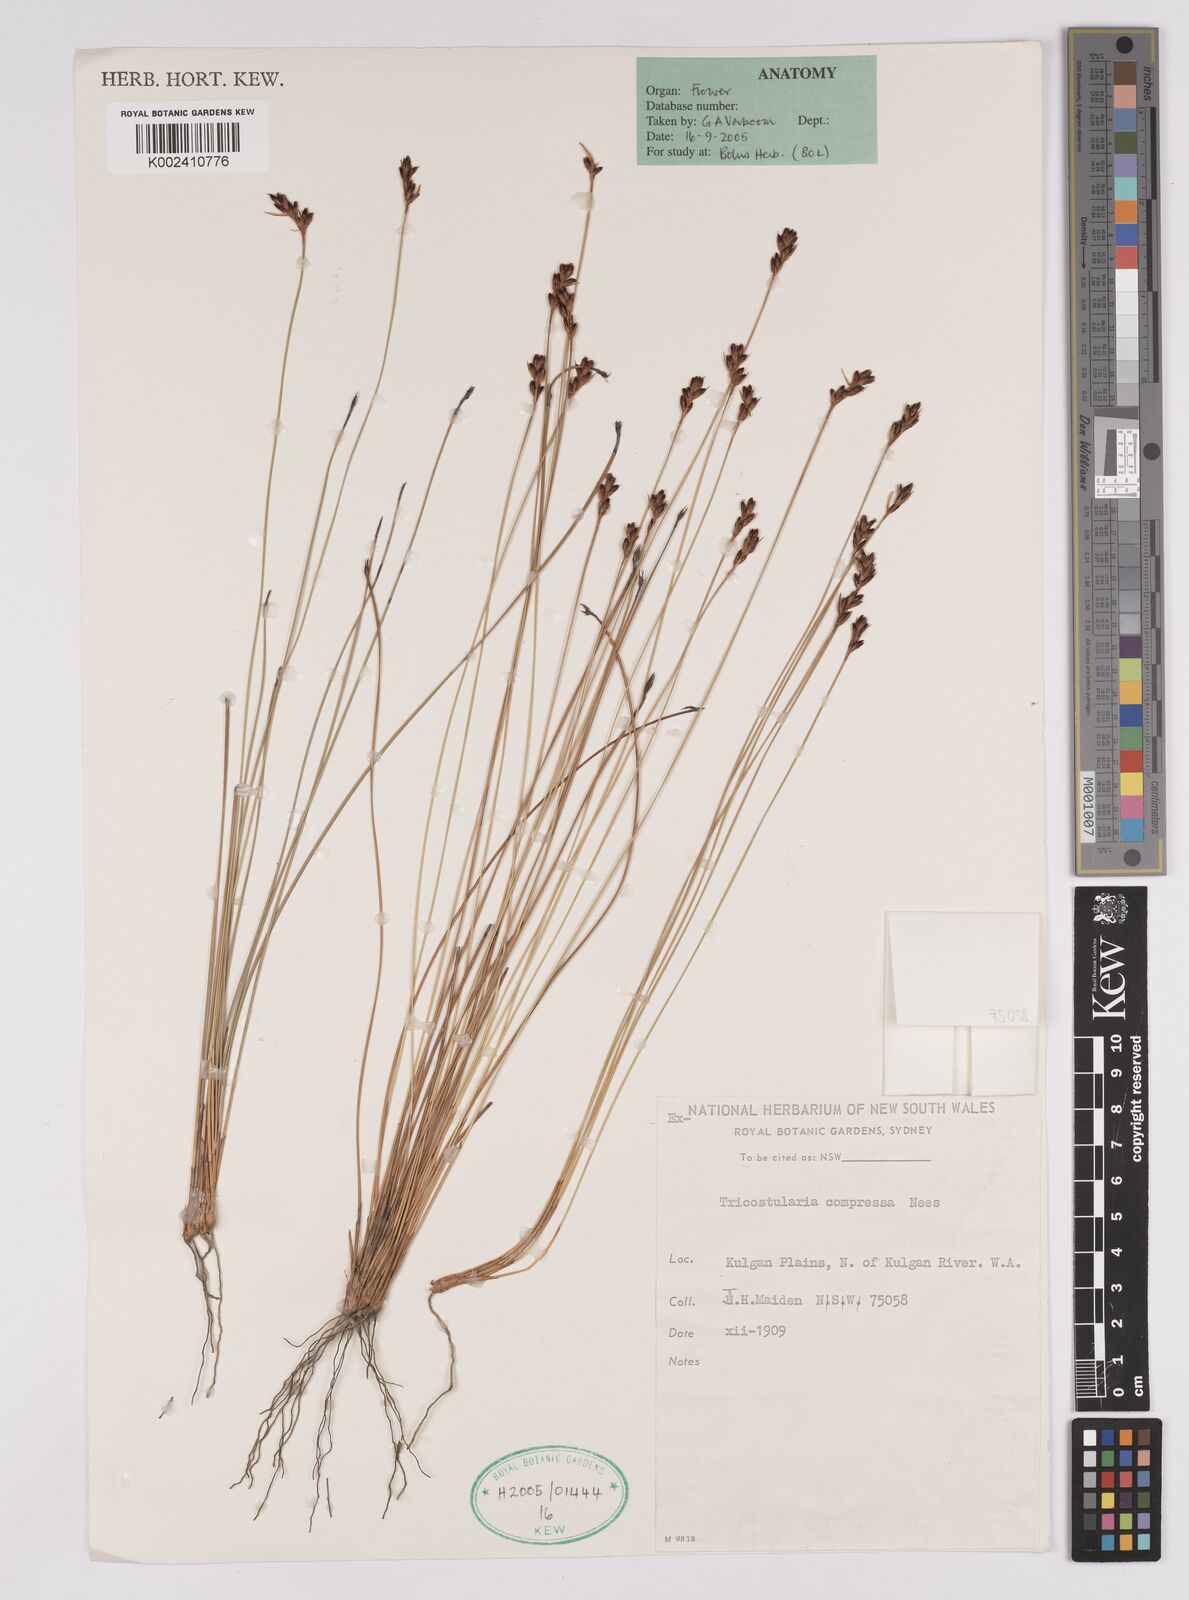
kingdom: Plantae
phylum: Tracheophyta
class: Liliopsida
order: Poales
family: Cyperaceae
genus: Tricostularia
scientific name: Tricostularia compressa
